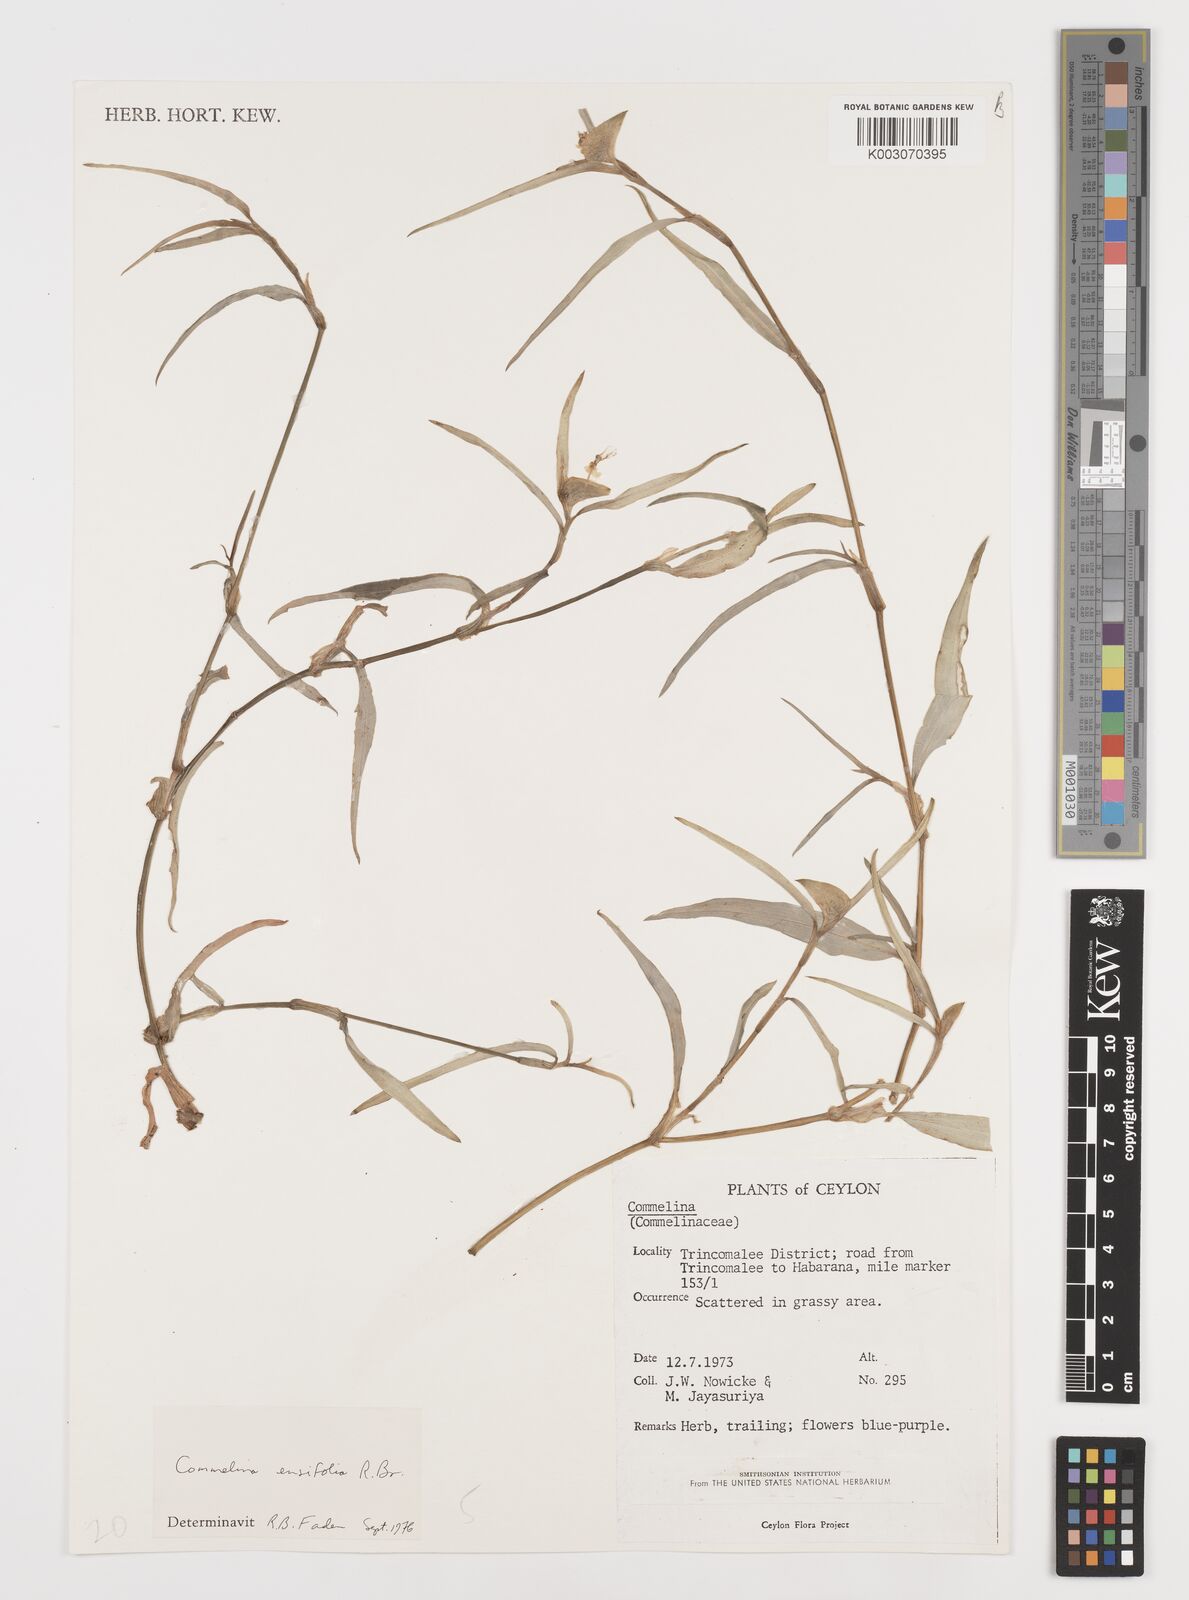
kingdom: Plantae
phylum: Tracheophyta
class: Liliopsida
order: Commelinales
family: Commelinaceae
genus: Commelina
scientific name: Commelina ensifolia
